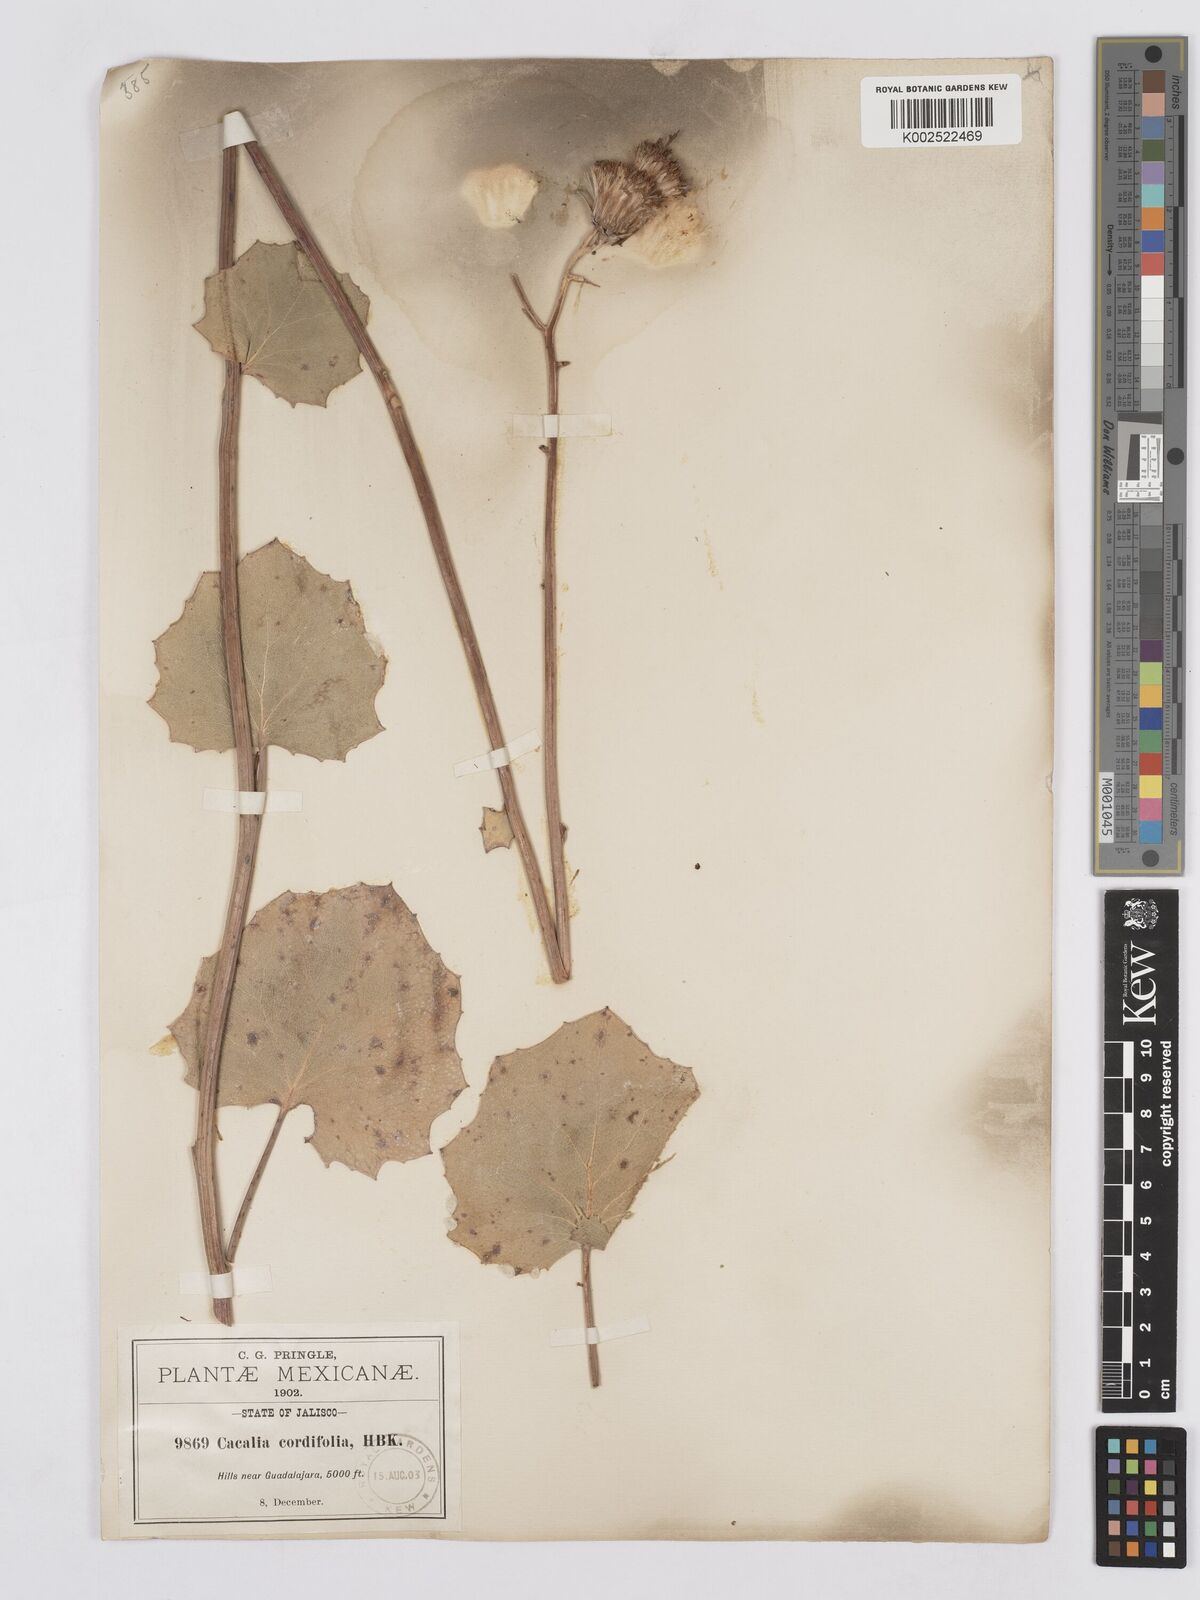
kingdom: Plantae
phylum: Tracheophyta
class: Magnoliopsida
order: Asterales
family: Asteraceae
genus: Roldana
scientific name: Roldana sessilifolia
